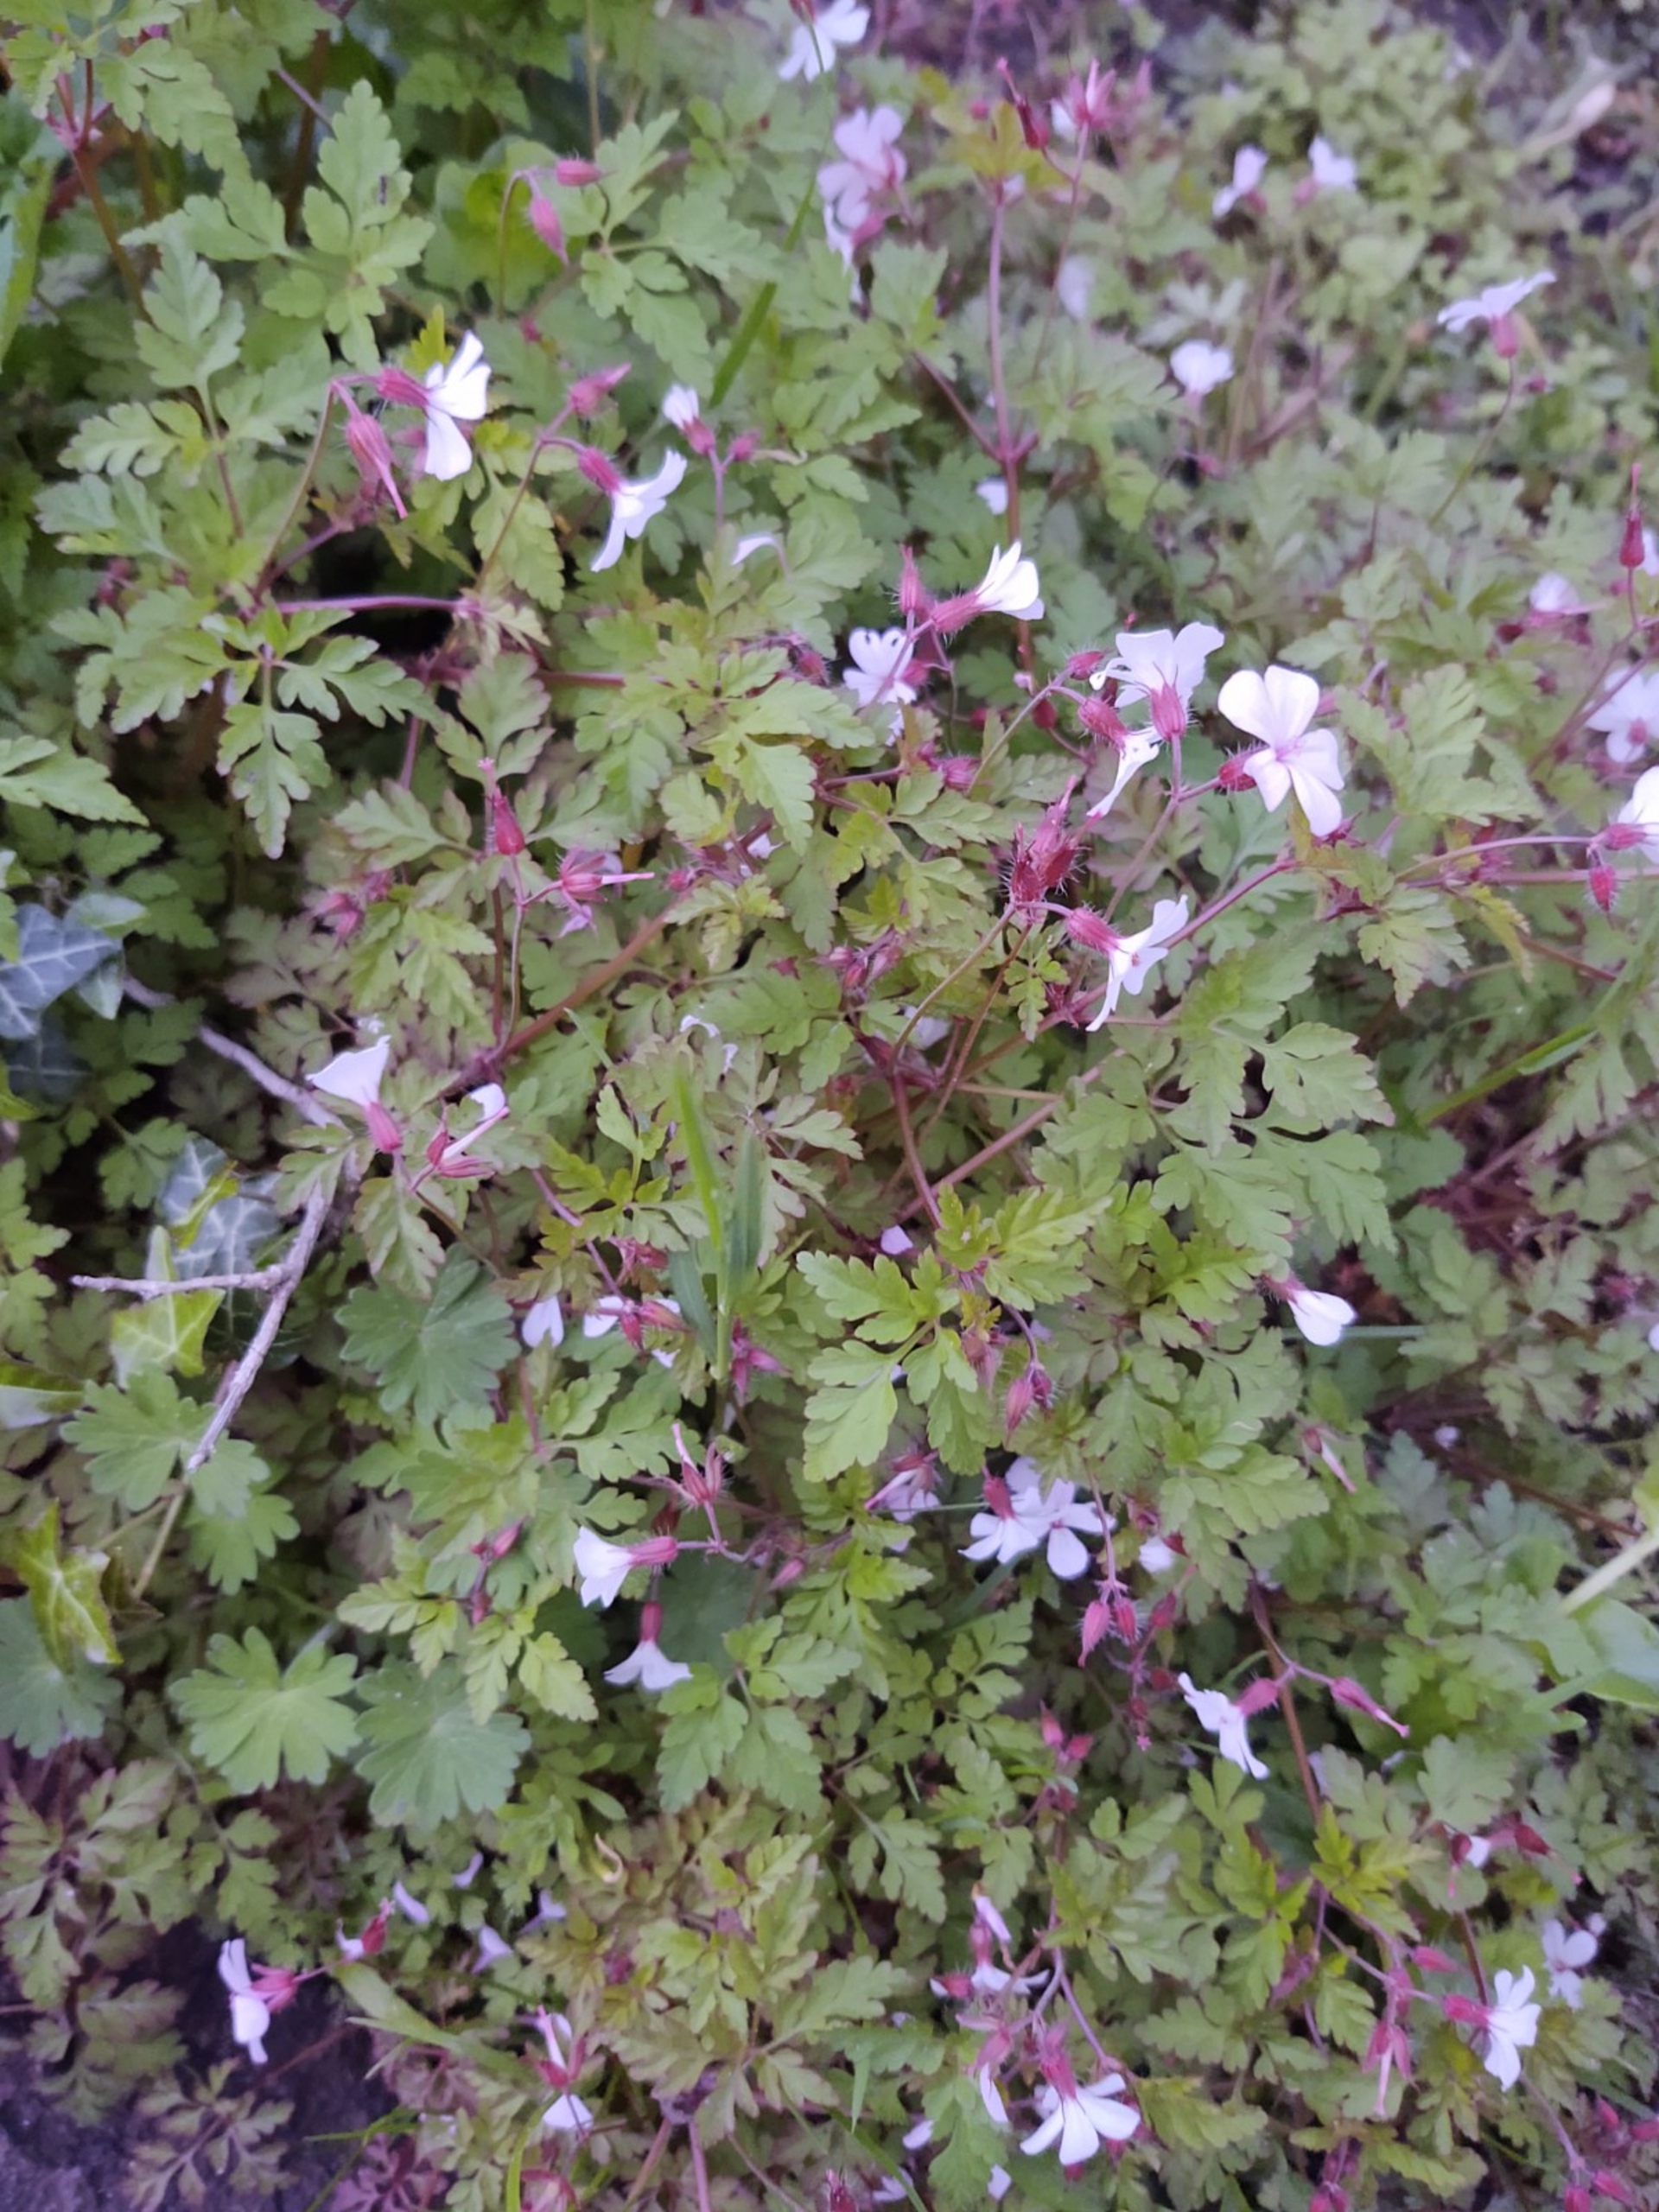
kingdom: Plantae
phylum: Tracheophyta
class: Magnoliopsida
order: Geraniales
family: Geraniaceae
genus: Geranium
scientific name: Geranium robertianum
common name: Stinkende storkenæb
